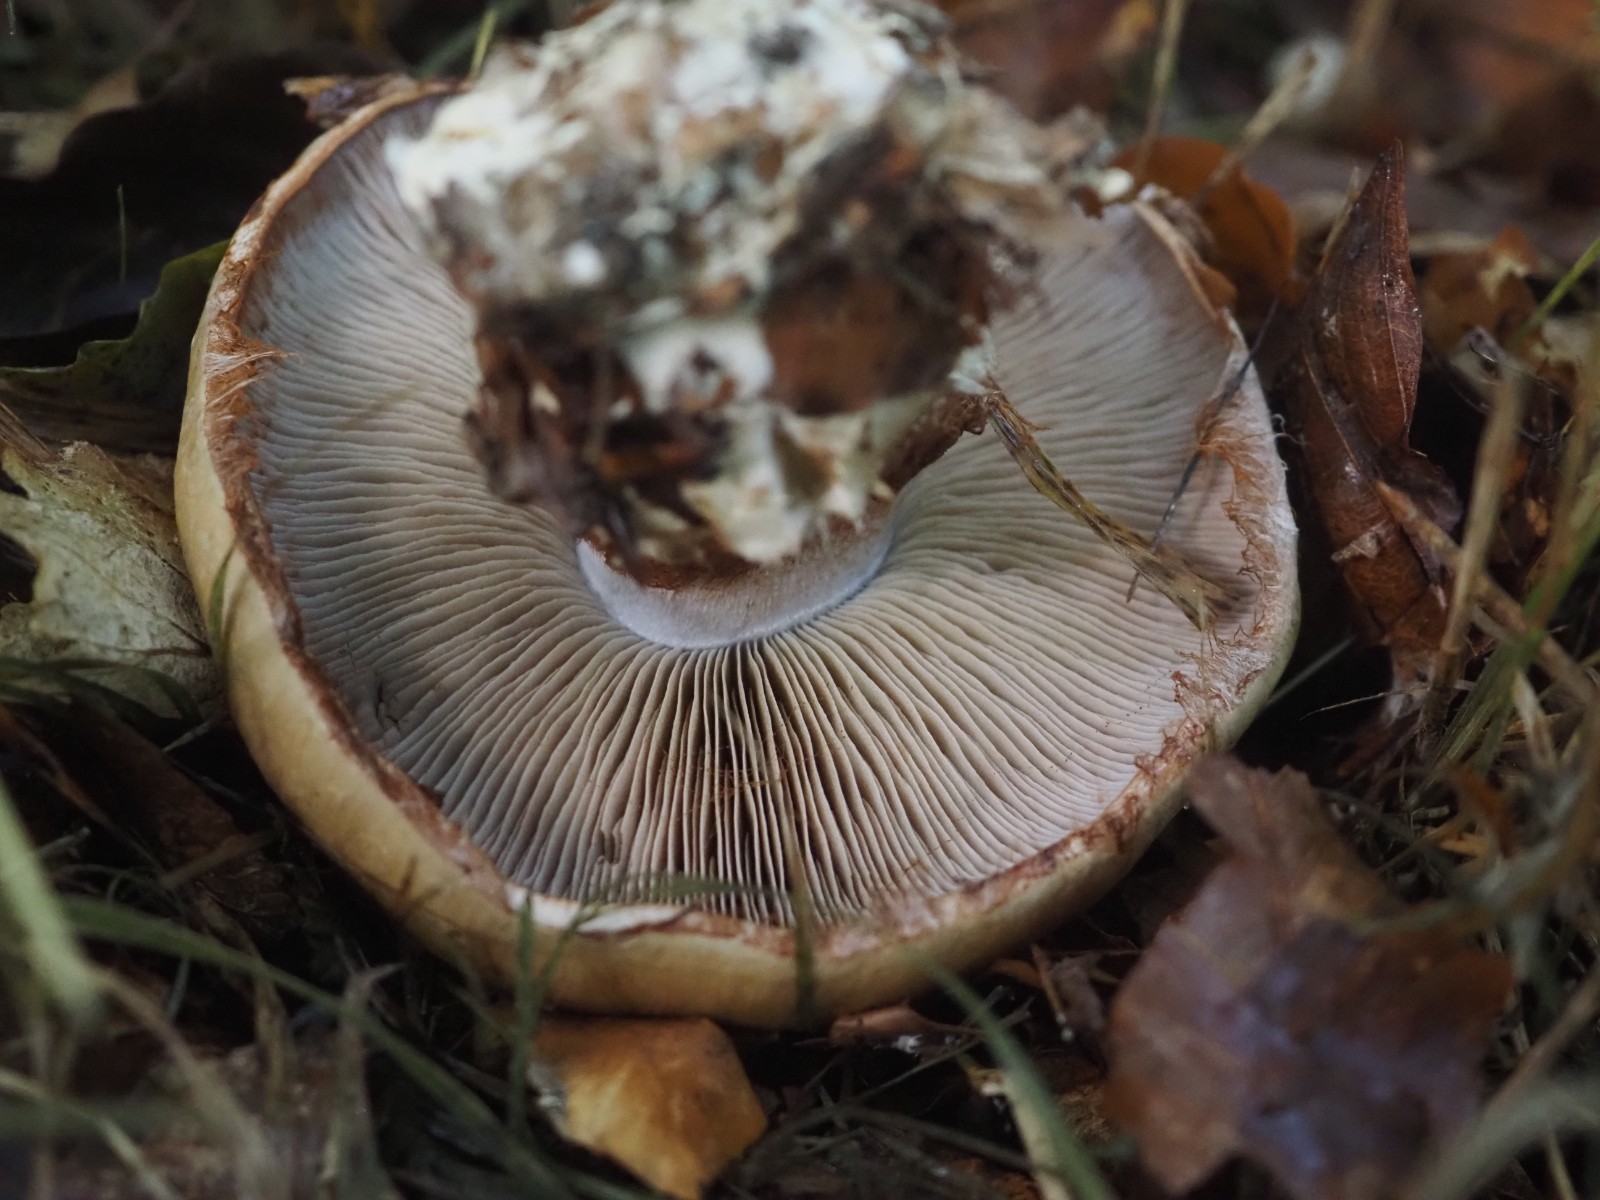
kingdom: Fungi
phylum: Basidiomycota
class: Agaricomycetes
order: Agaricales
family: Cortinariaceae
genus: Cortinarius
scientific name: Cortinarius anserinus
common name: bøge-slørhat
